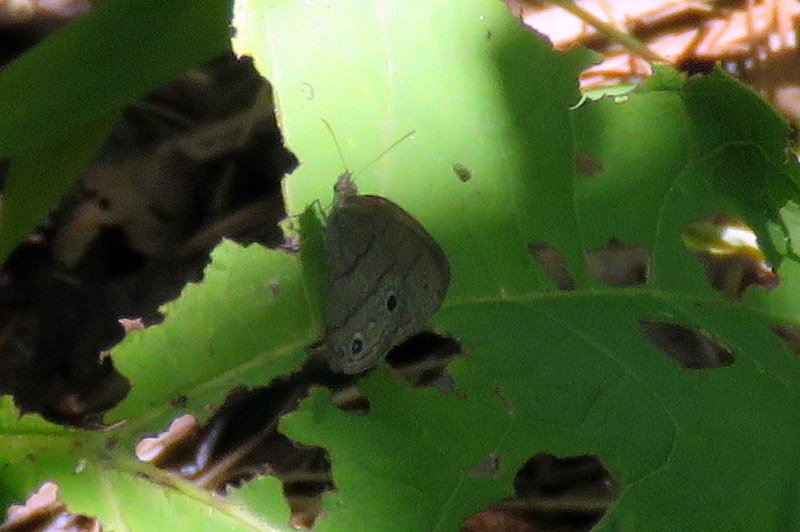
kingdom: Animalia
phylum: Arthropoda
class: Insecta
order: Lepidoptera
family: Nymphalidae
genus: Hermeuptychia
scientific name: Hermeuptychia hermes
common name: Carolina Satyr
